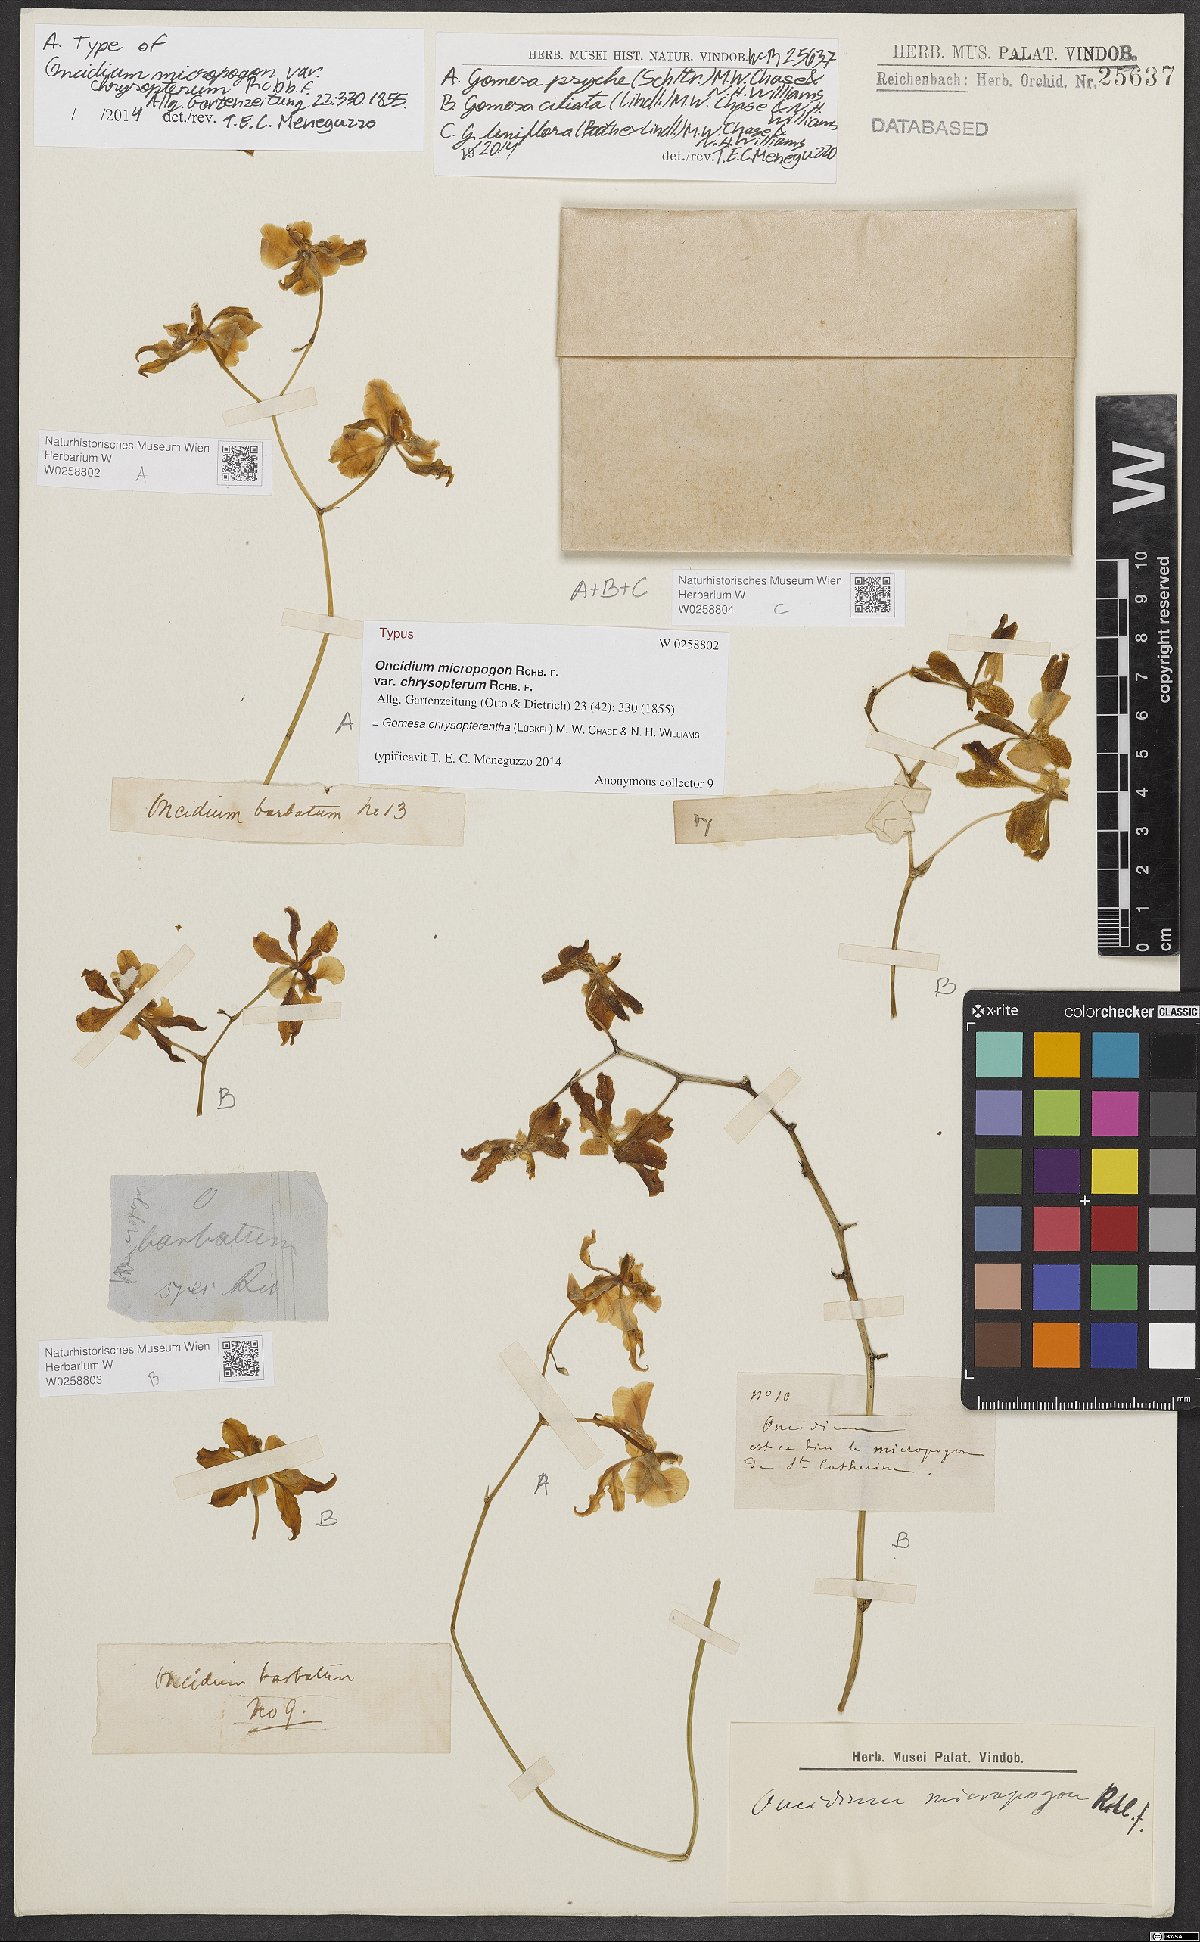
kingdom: Plantae
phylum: Tracheophyta
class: Liliopsida
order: Asparagales
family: Orchidaceae
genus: Gomesa
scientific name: Gomesa chrysopterantha
